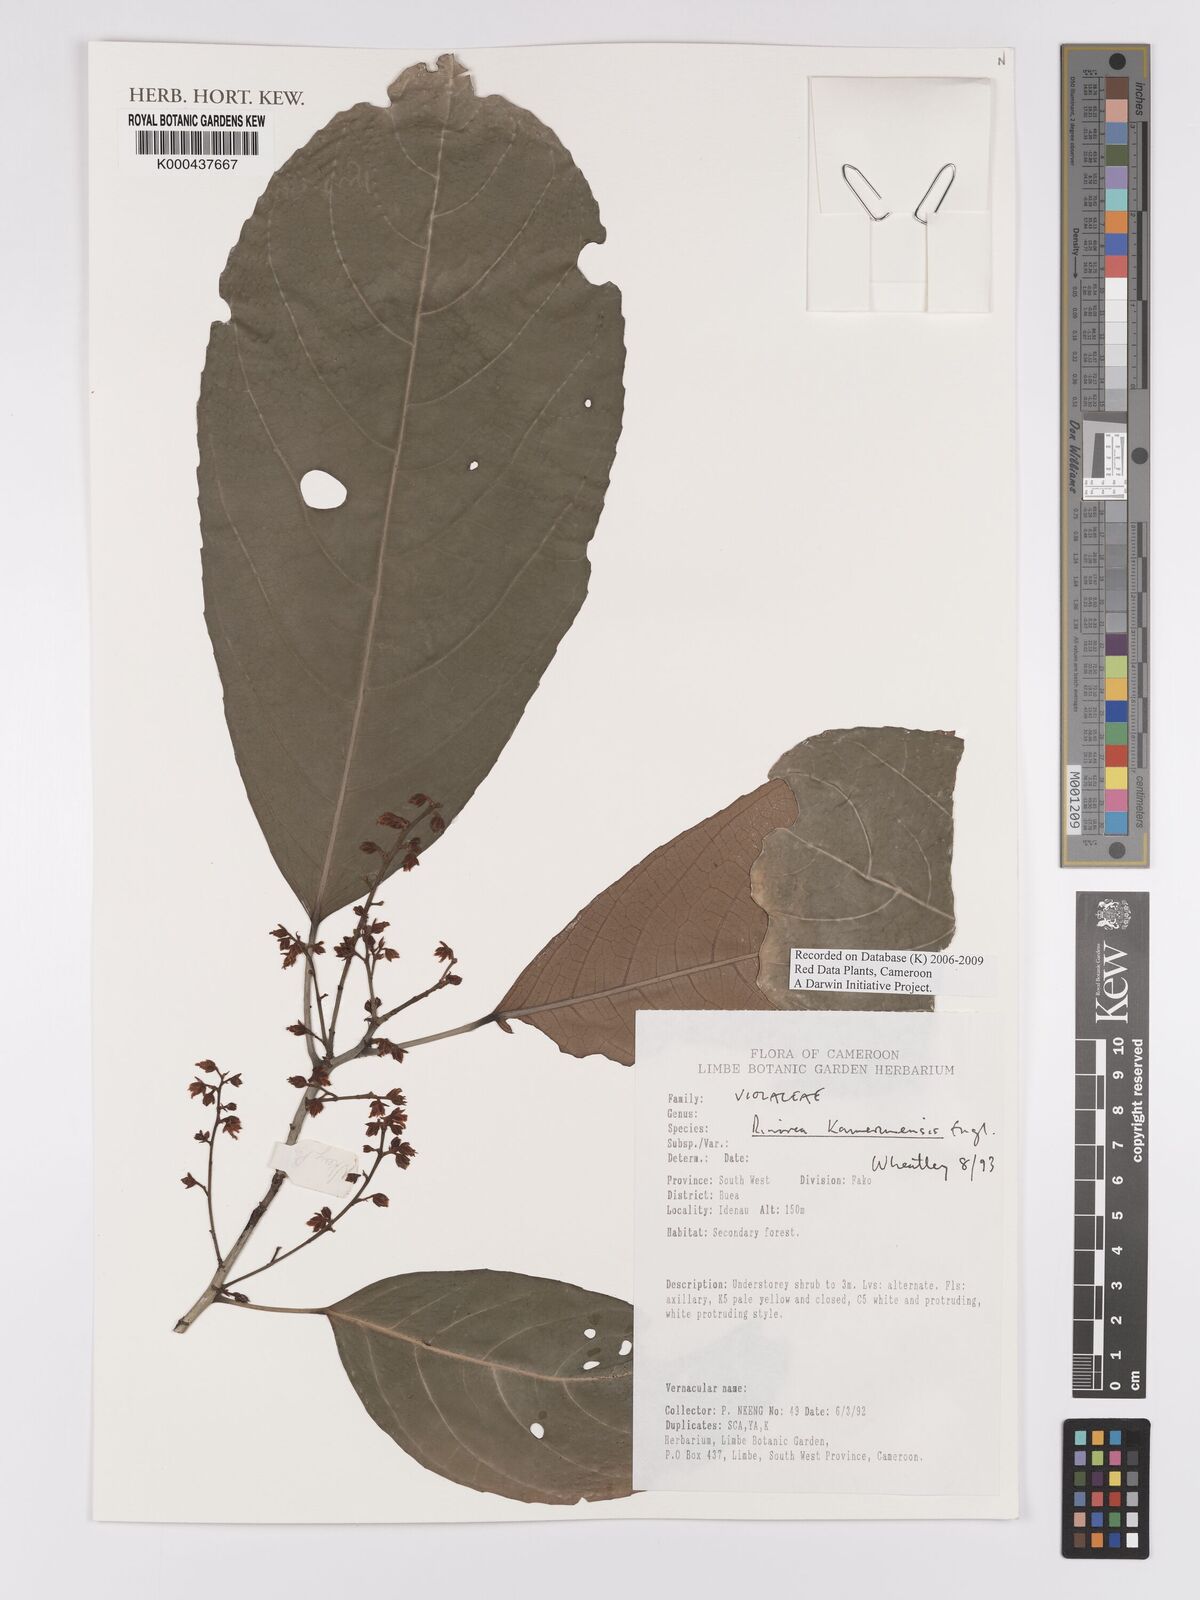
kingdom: Plantae
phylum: Tracheophyta
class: Magnoliopsida
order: Malpighiales
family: Violaceae
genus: Rinorea
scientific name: Rinorea kamerunensis
